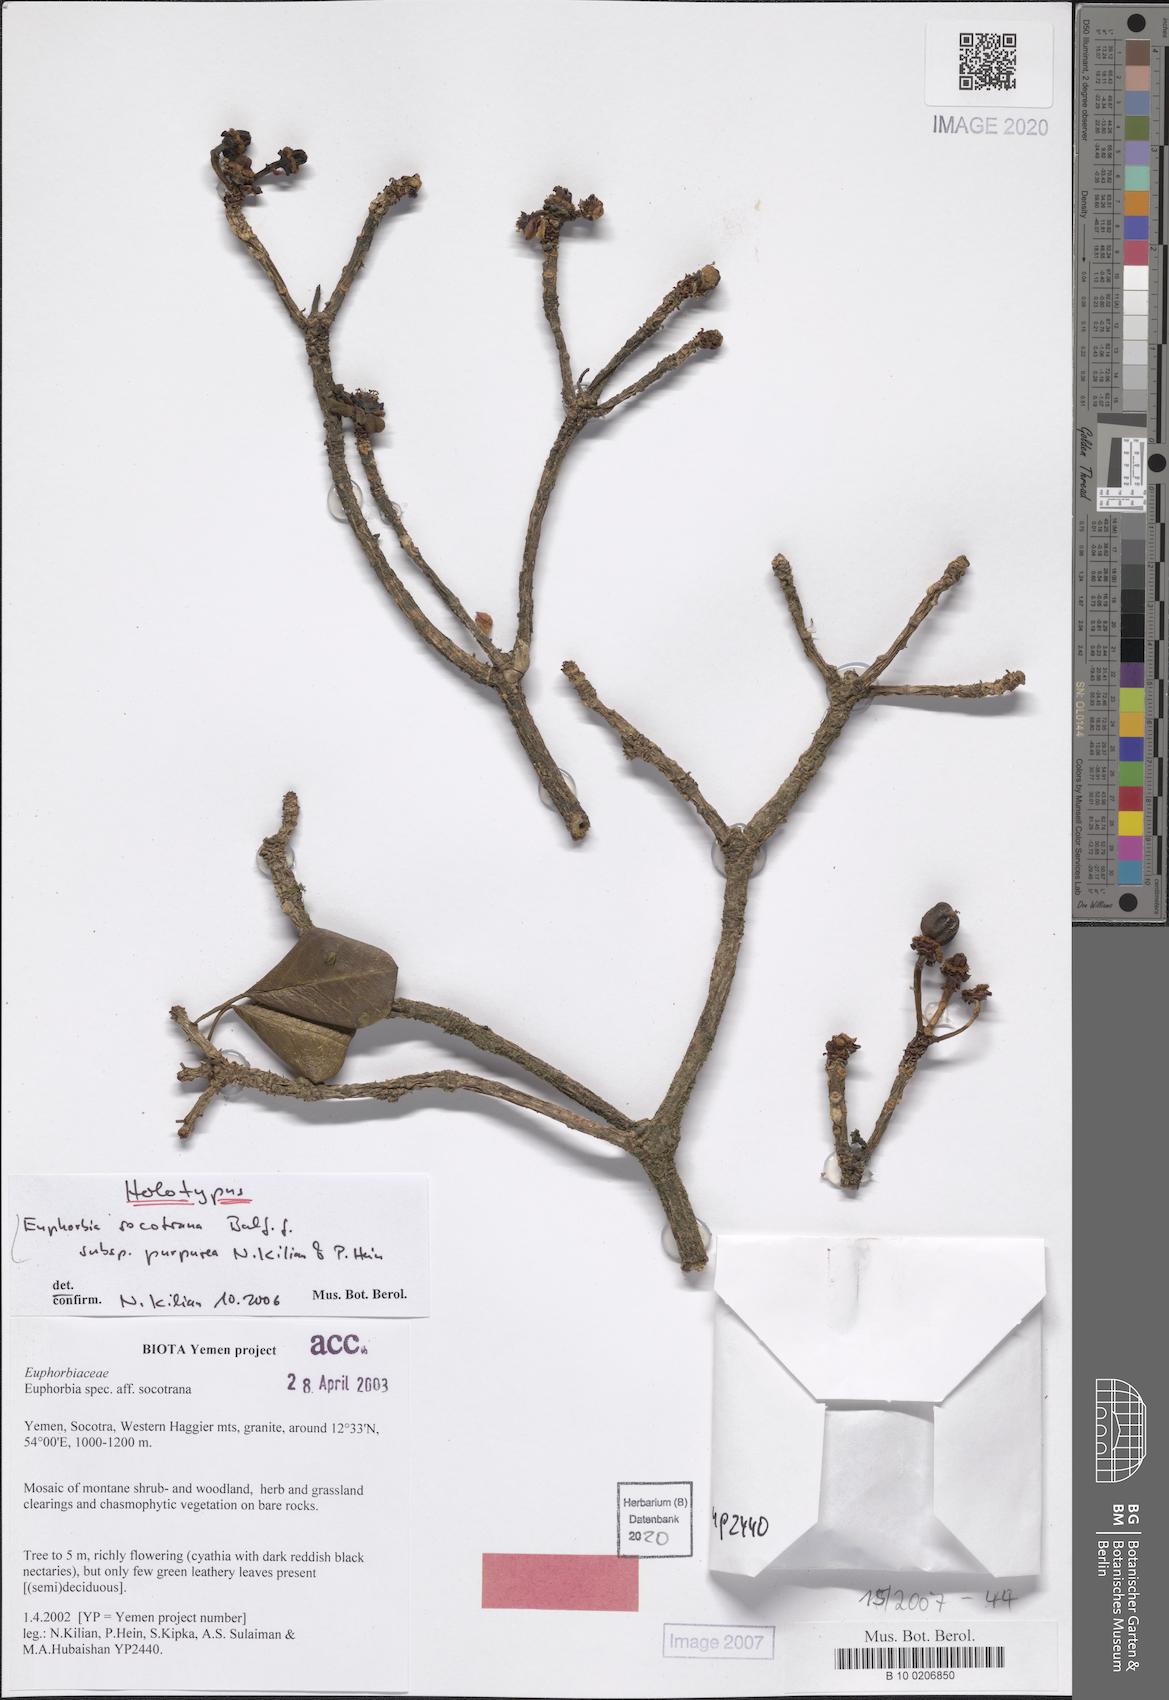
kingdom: Plantae
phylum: Tracheophyta
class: Magnoliopsida
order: Malpighiales
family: Euphorbiaceae
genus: Euphorbia
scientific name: Euphorbia socotrana
